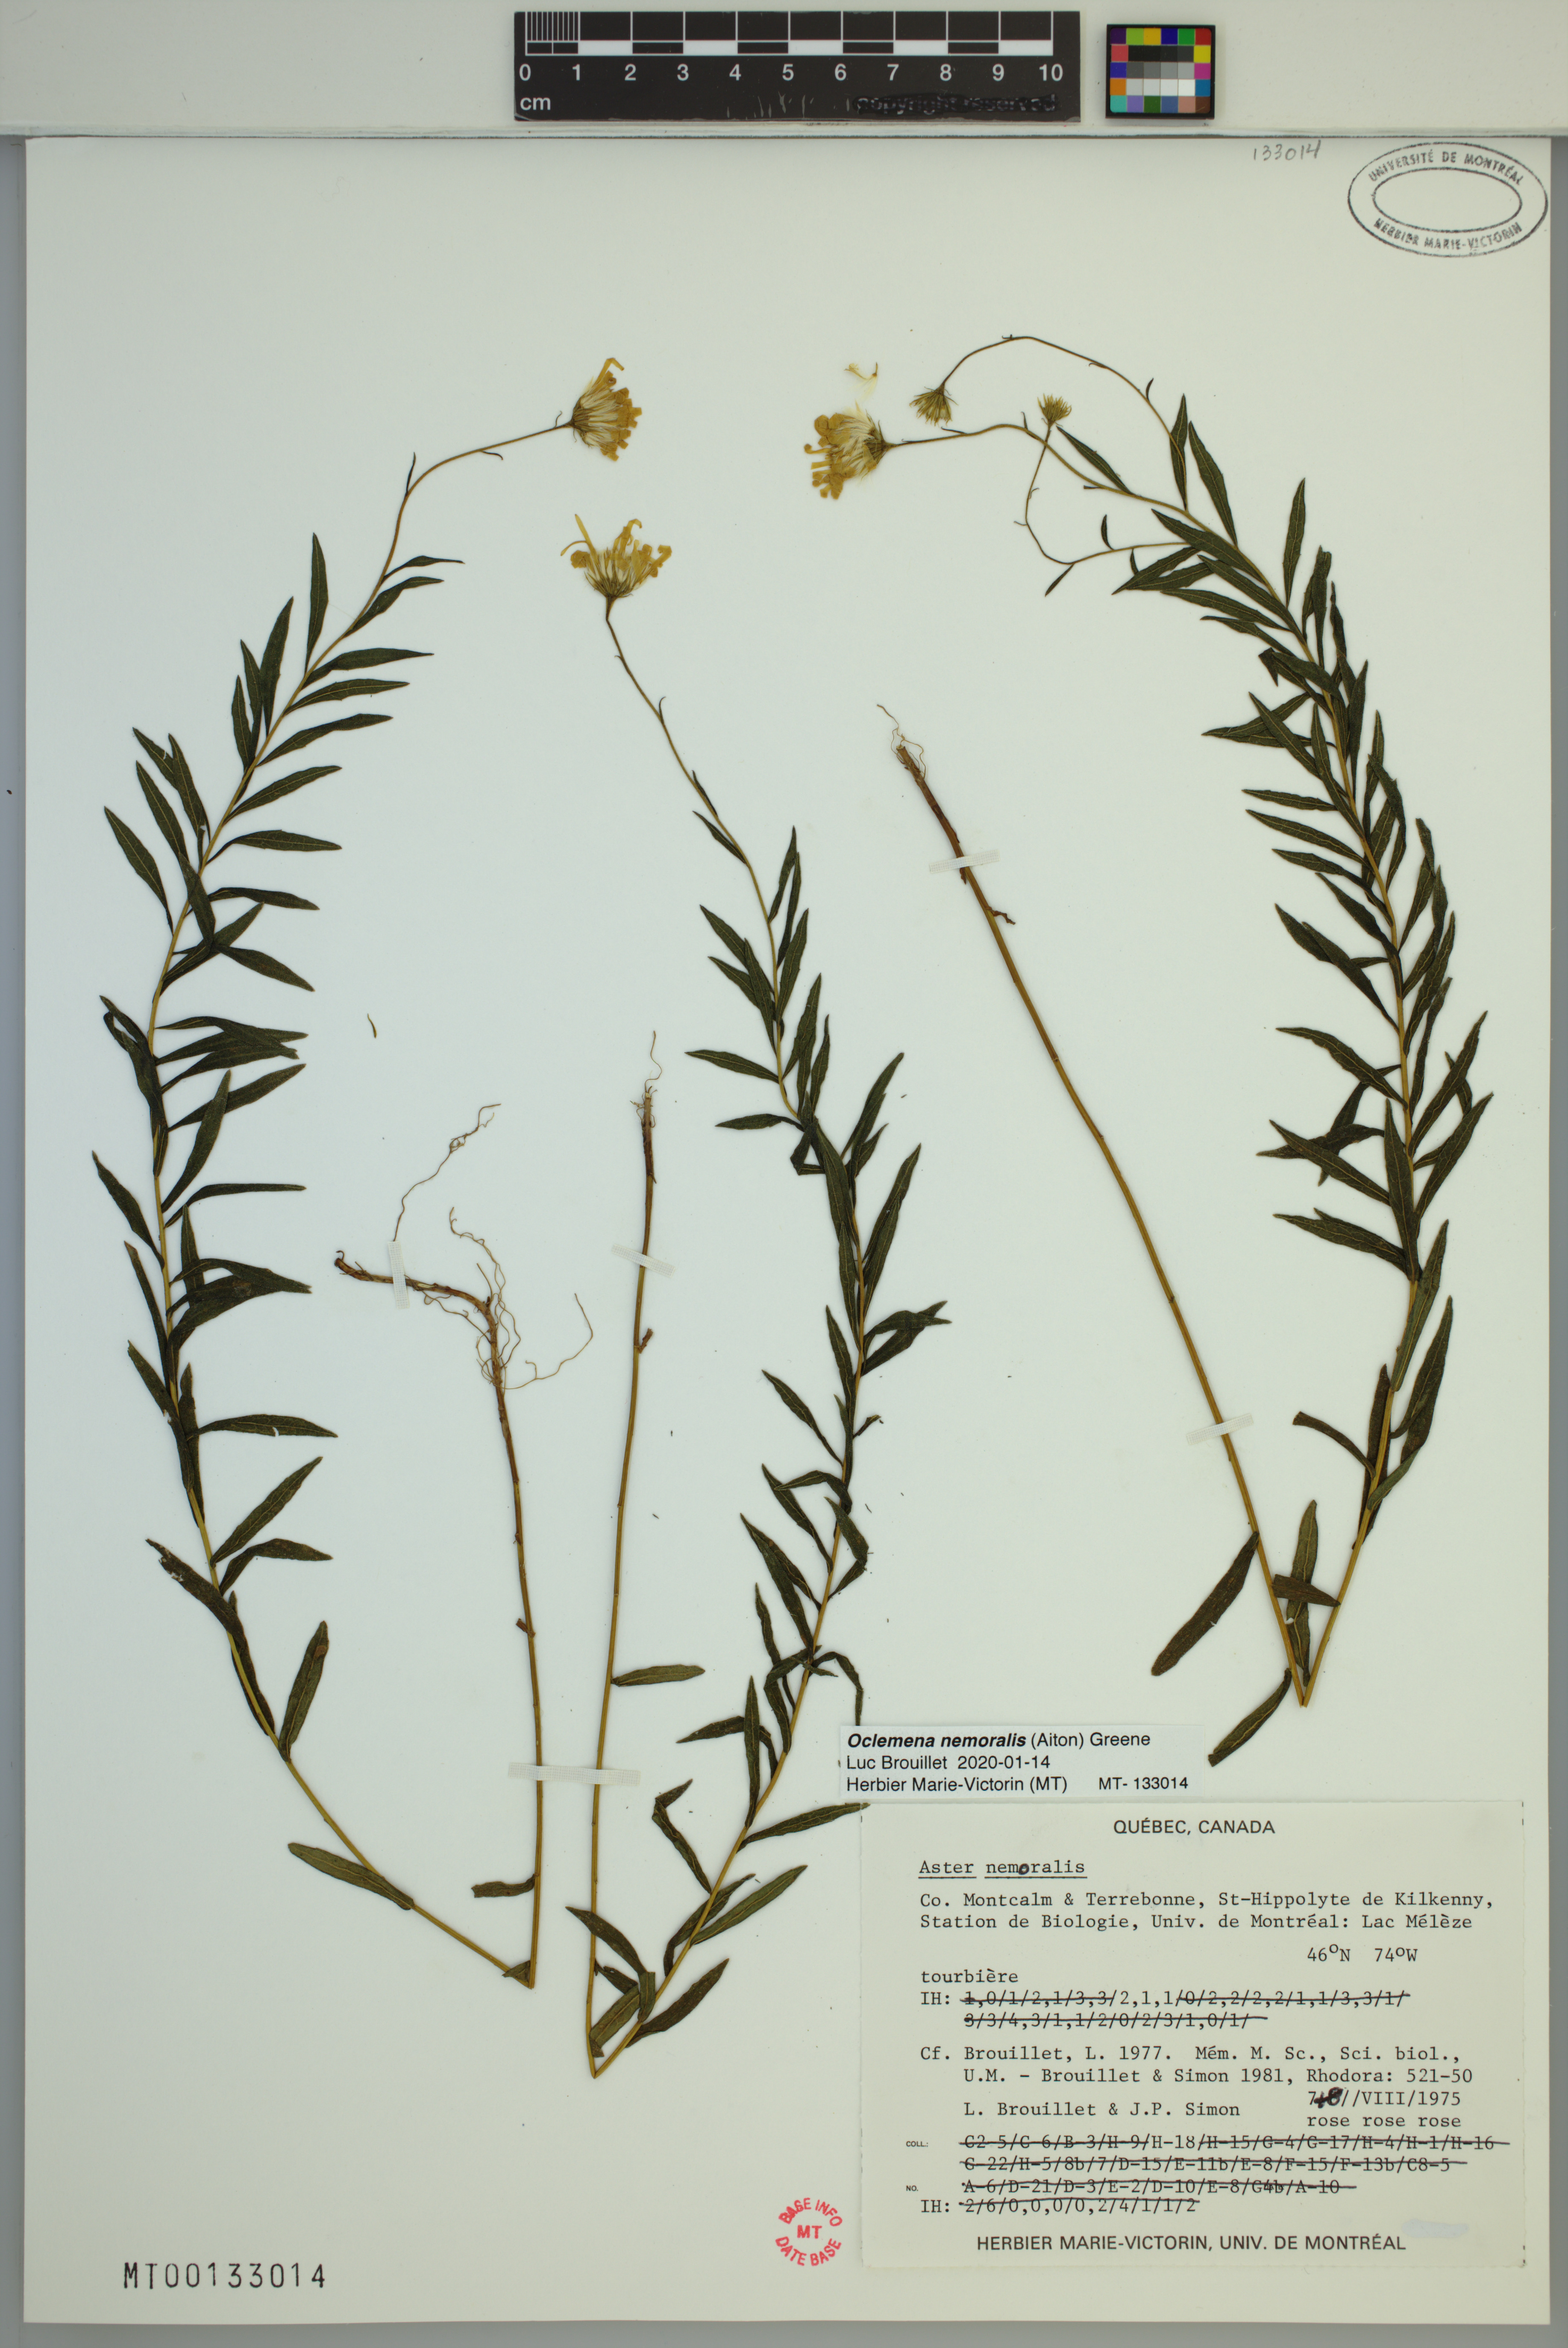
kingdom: Plantae
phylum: Tracheophyta
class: Magnoliopsida
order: Asterales
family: Asteraceae
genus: Oclemena
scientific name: Oclemena nemoralis
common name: Bog aster
